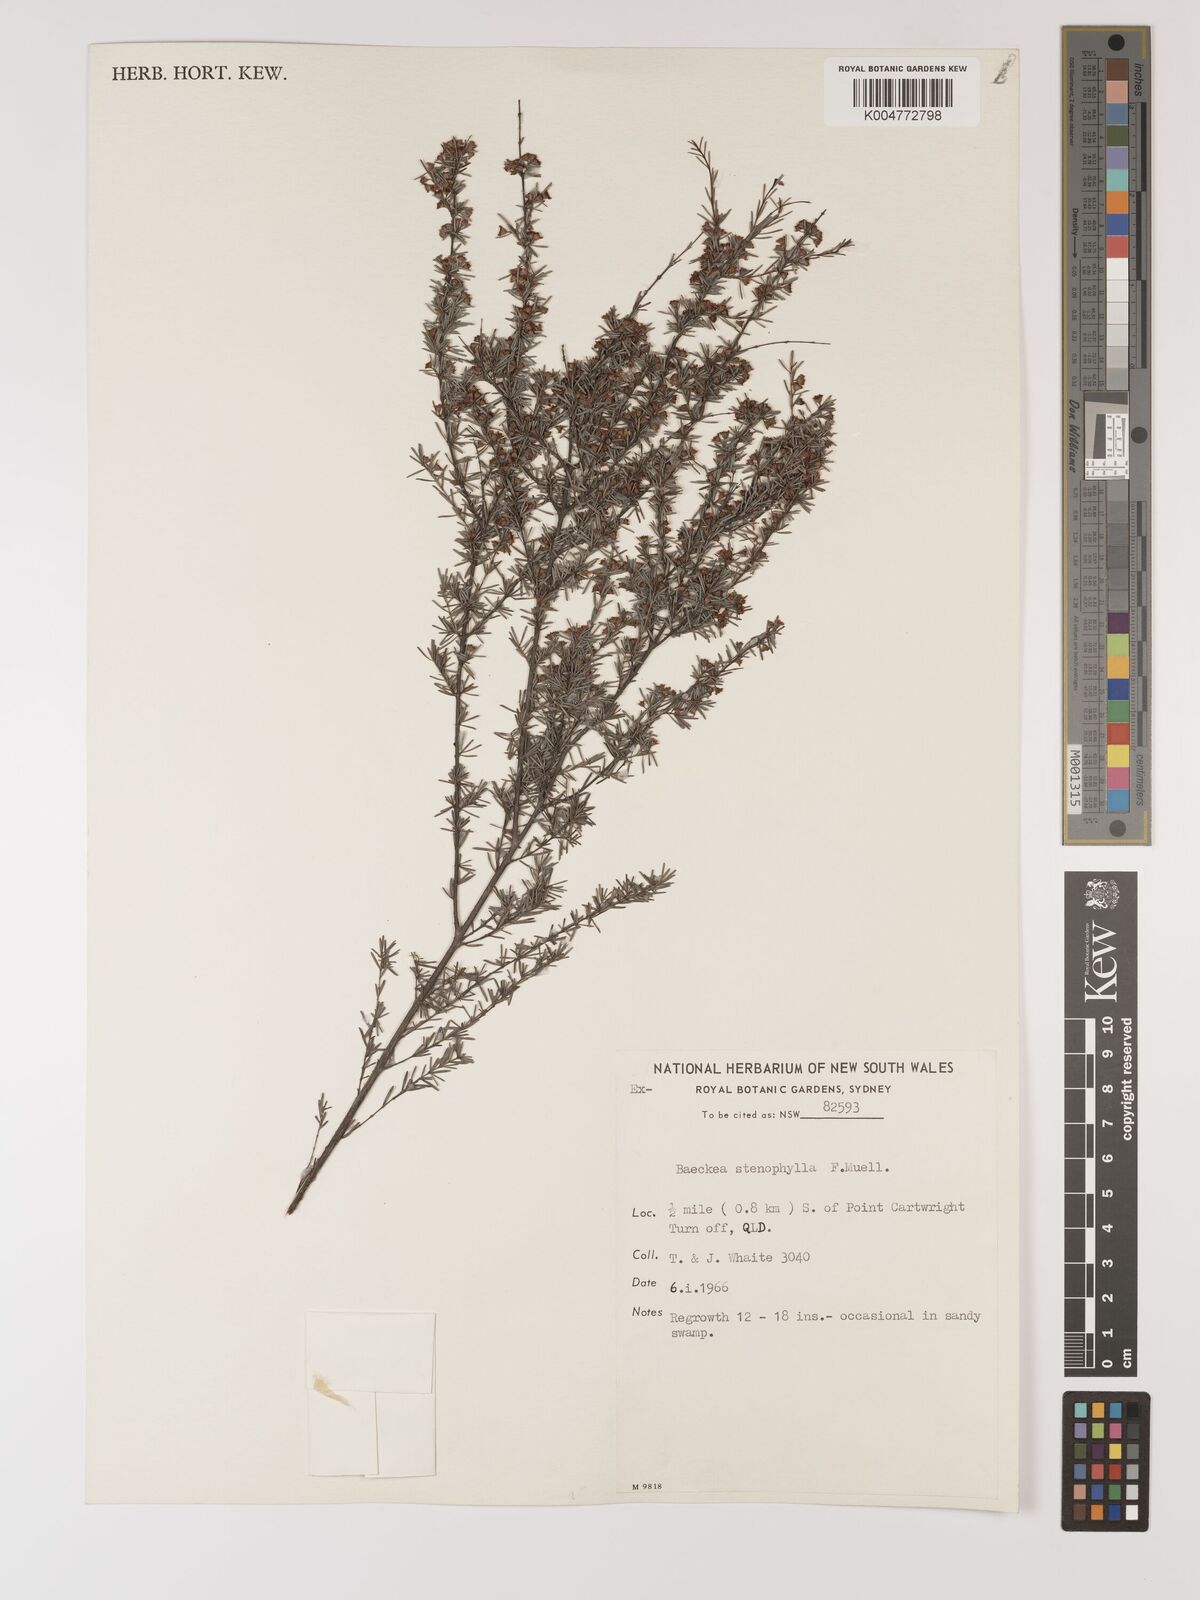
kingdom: Plantae
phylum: Tracheophyta
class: Magnoliopsida
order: Myrtales
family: Myrtaceae
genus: Baeckea
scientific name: Baeckea frutescens
